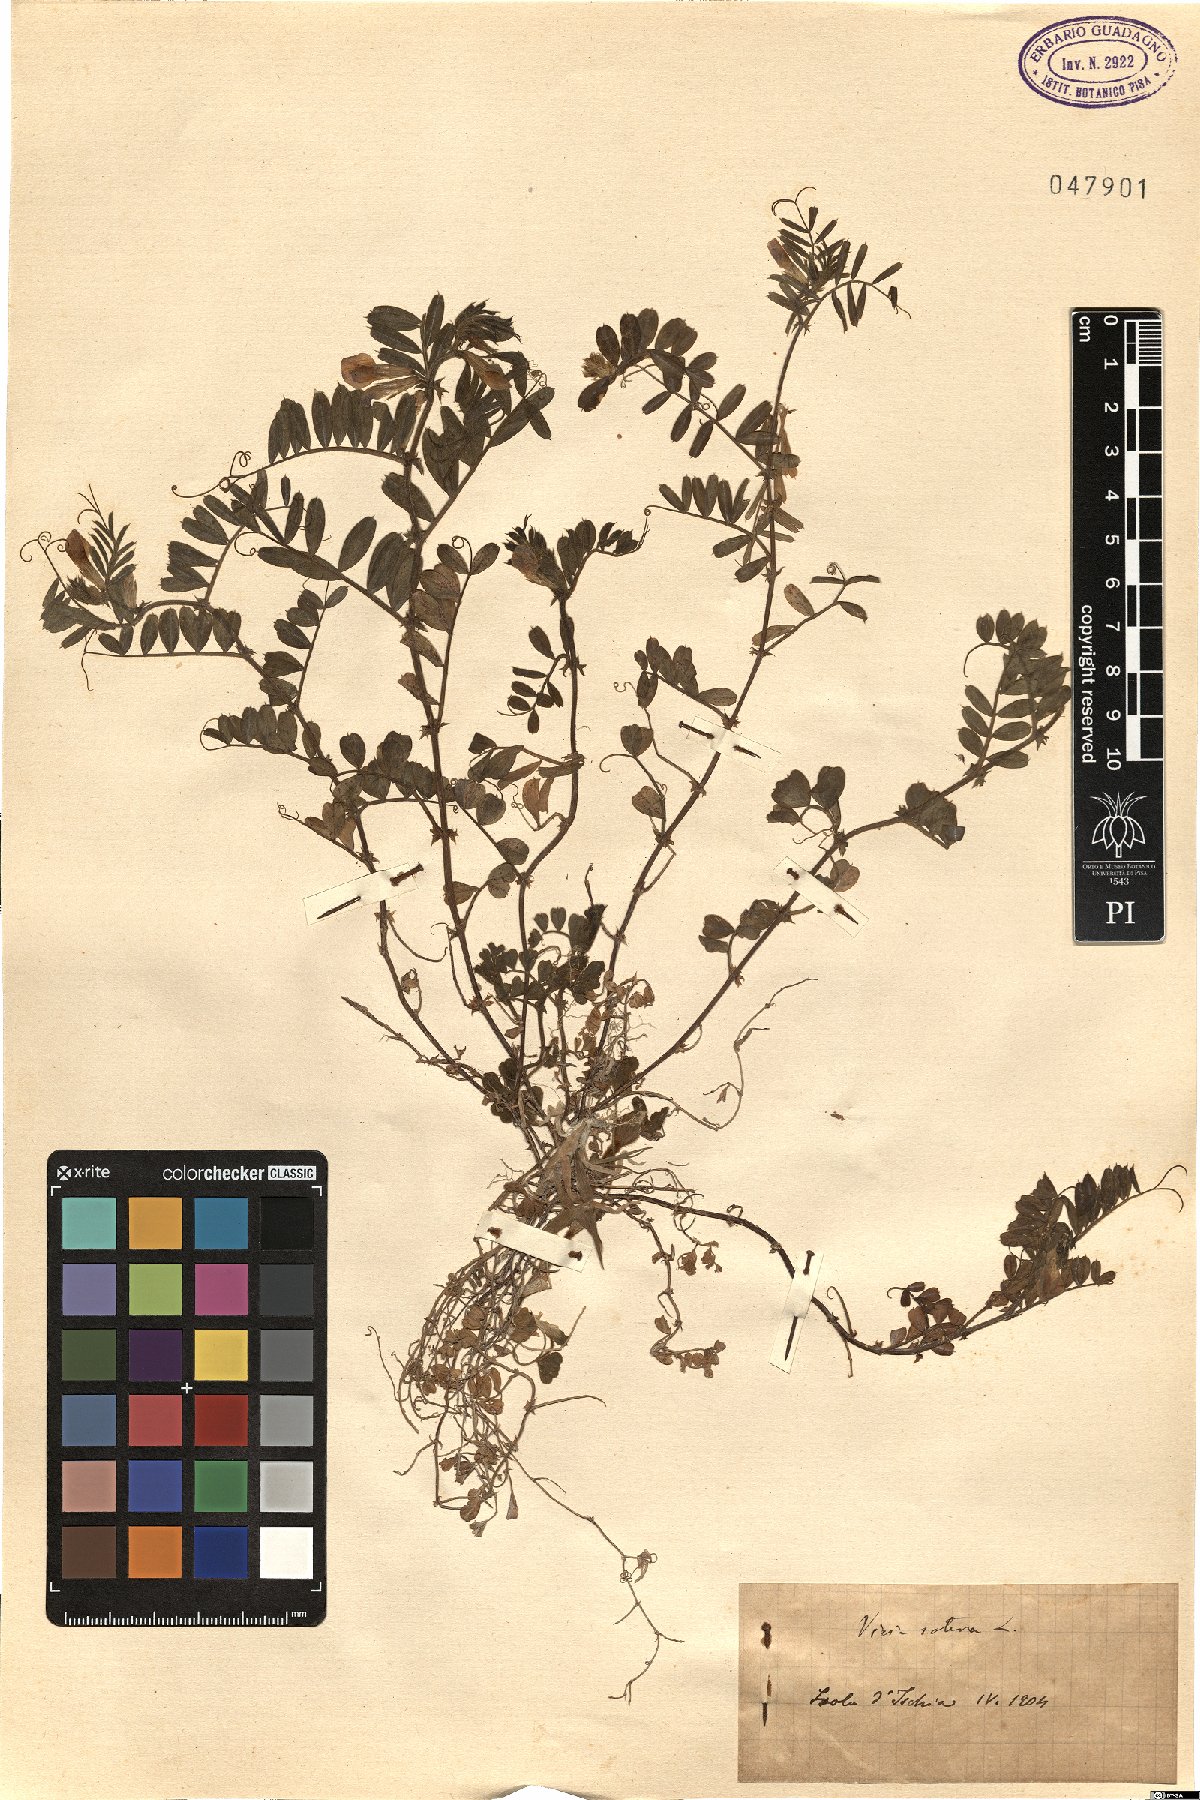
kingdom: Plantae
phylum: Tracheophyta
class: Magnoliopsida
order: Fabales
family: Fabaceae
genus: Vicia
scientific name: Vicia sativa
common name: Garden vetch
